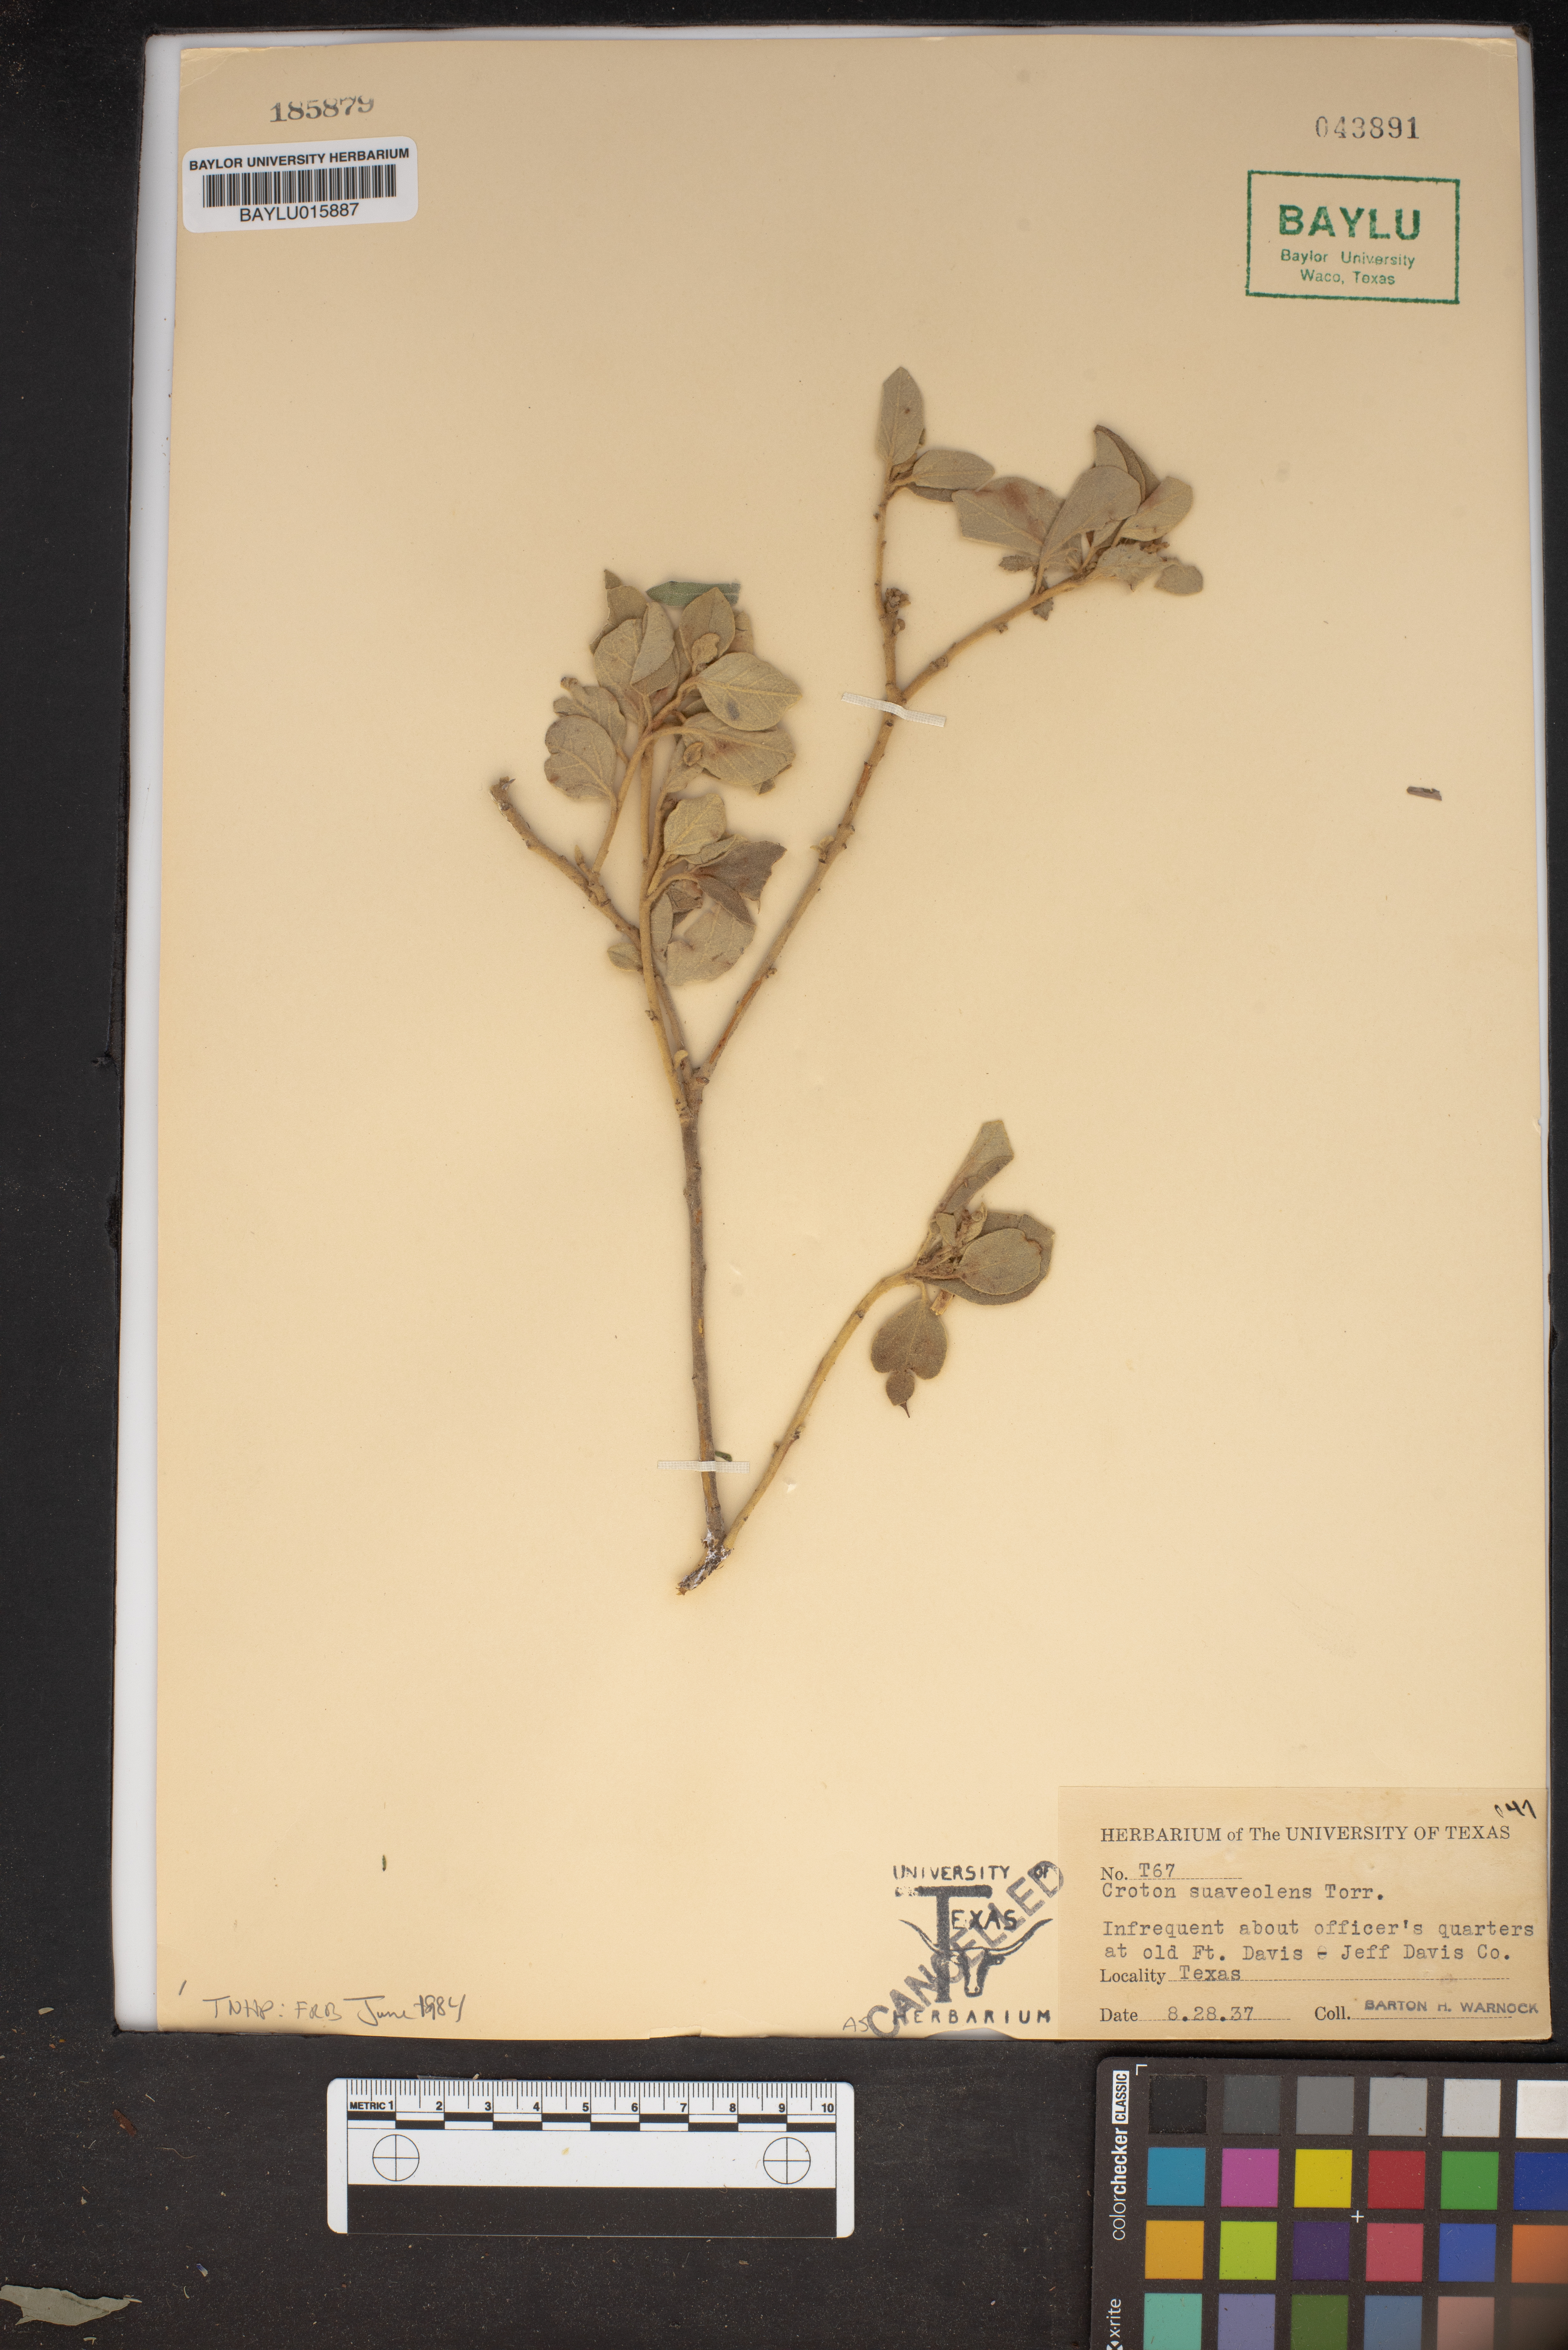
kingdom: Plantae
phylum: Tracheophyta
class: Magnoliopsida
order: Malpighiales
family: Euphorbiaceae
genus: Croton
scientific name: Croton suaveolens
